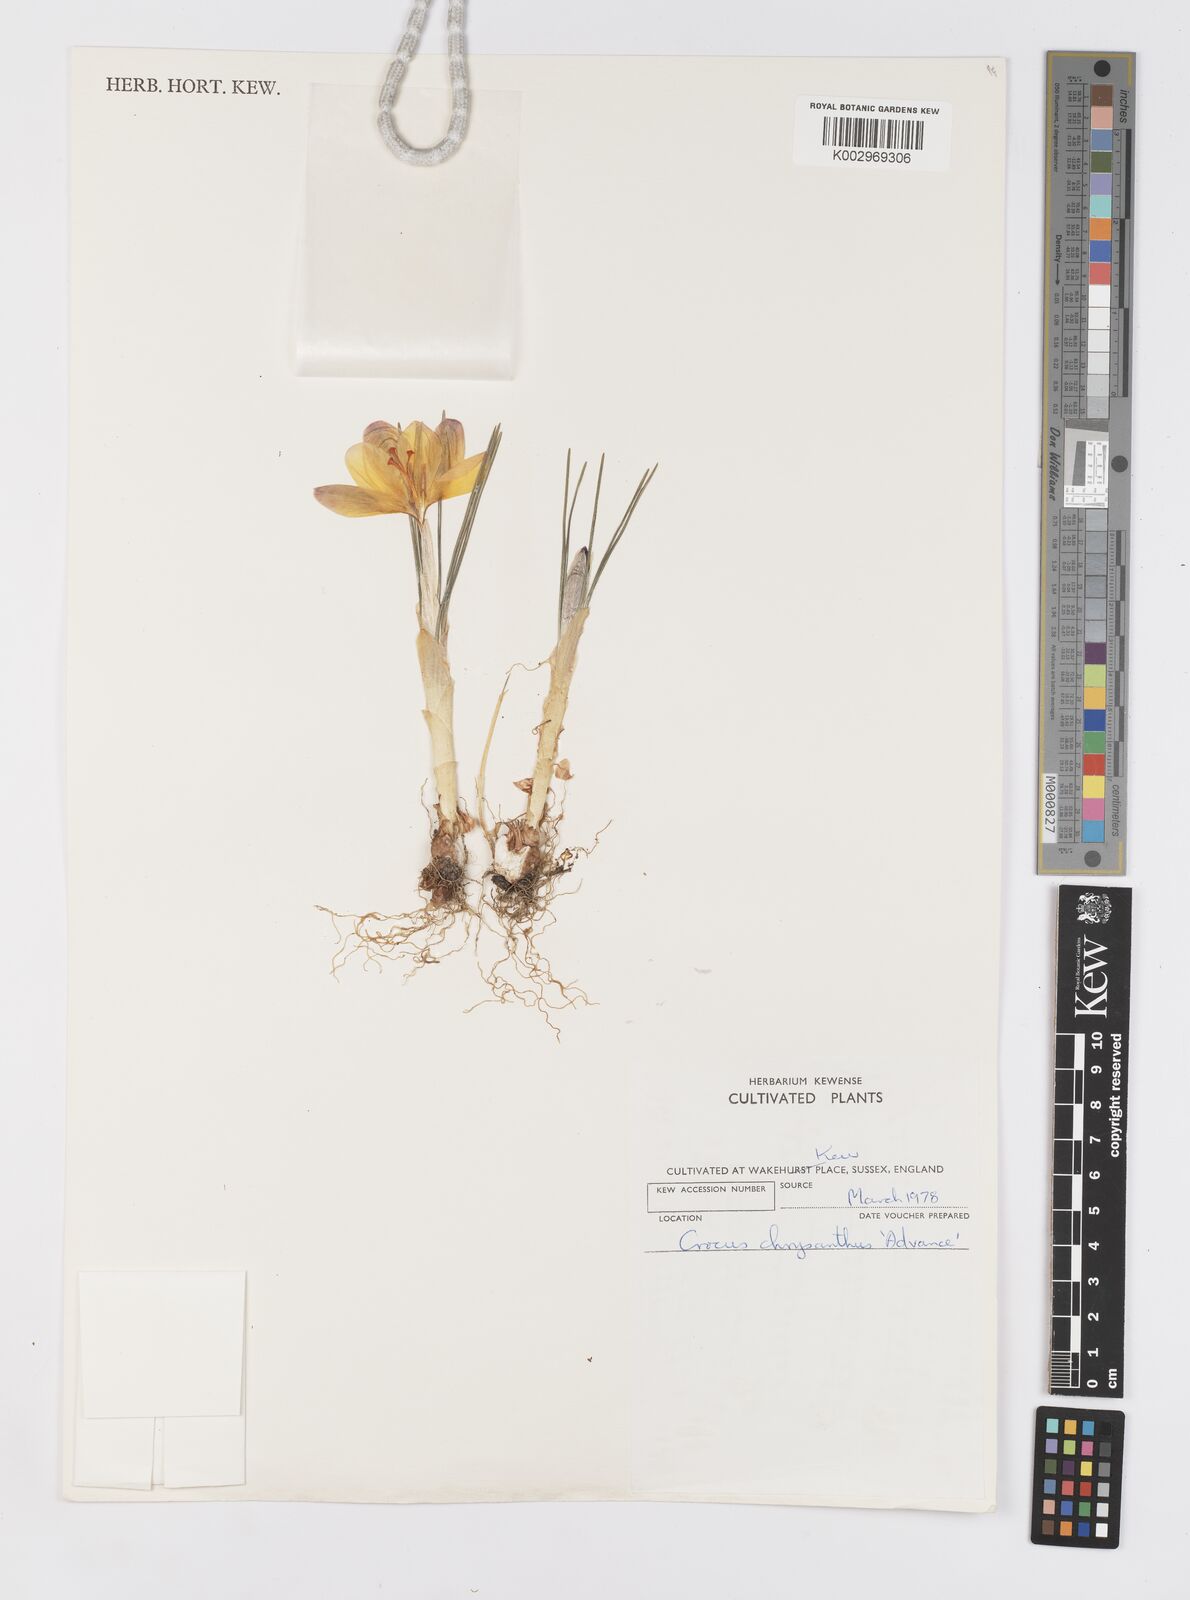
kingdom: Plantae
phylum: Tracheophyta
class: Liliopsida
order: Asparagales
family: Iridaceae
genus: Crocus
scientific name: Crocus chrysanthus
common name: Golden crocus
